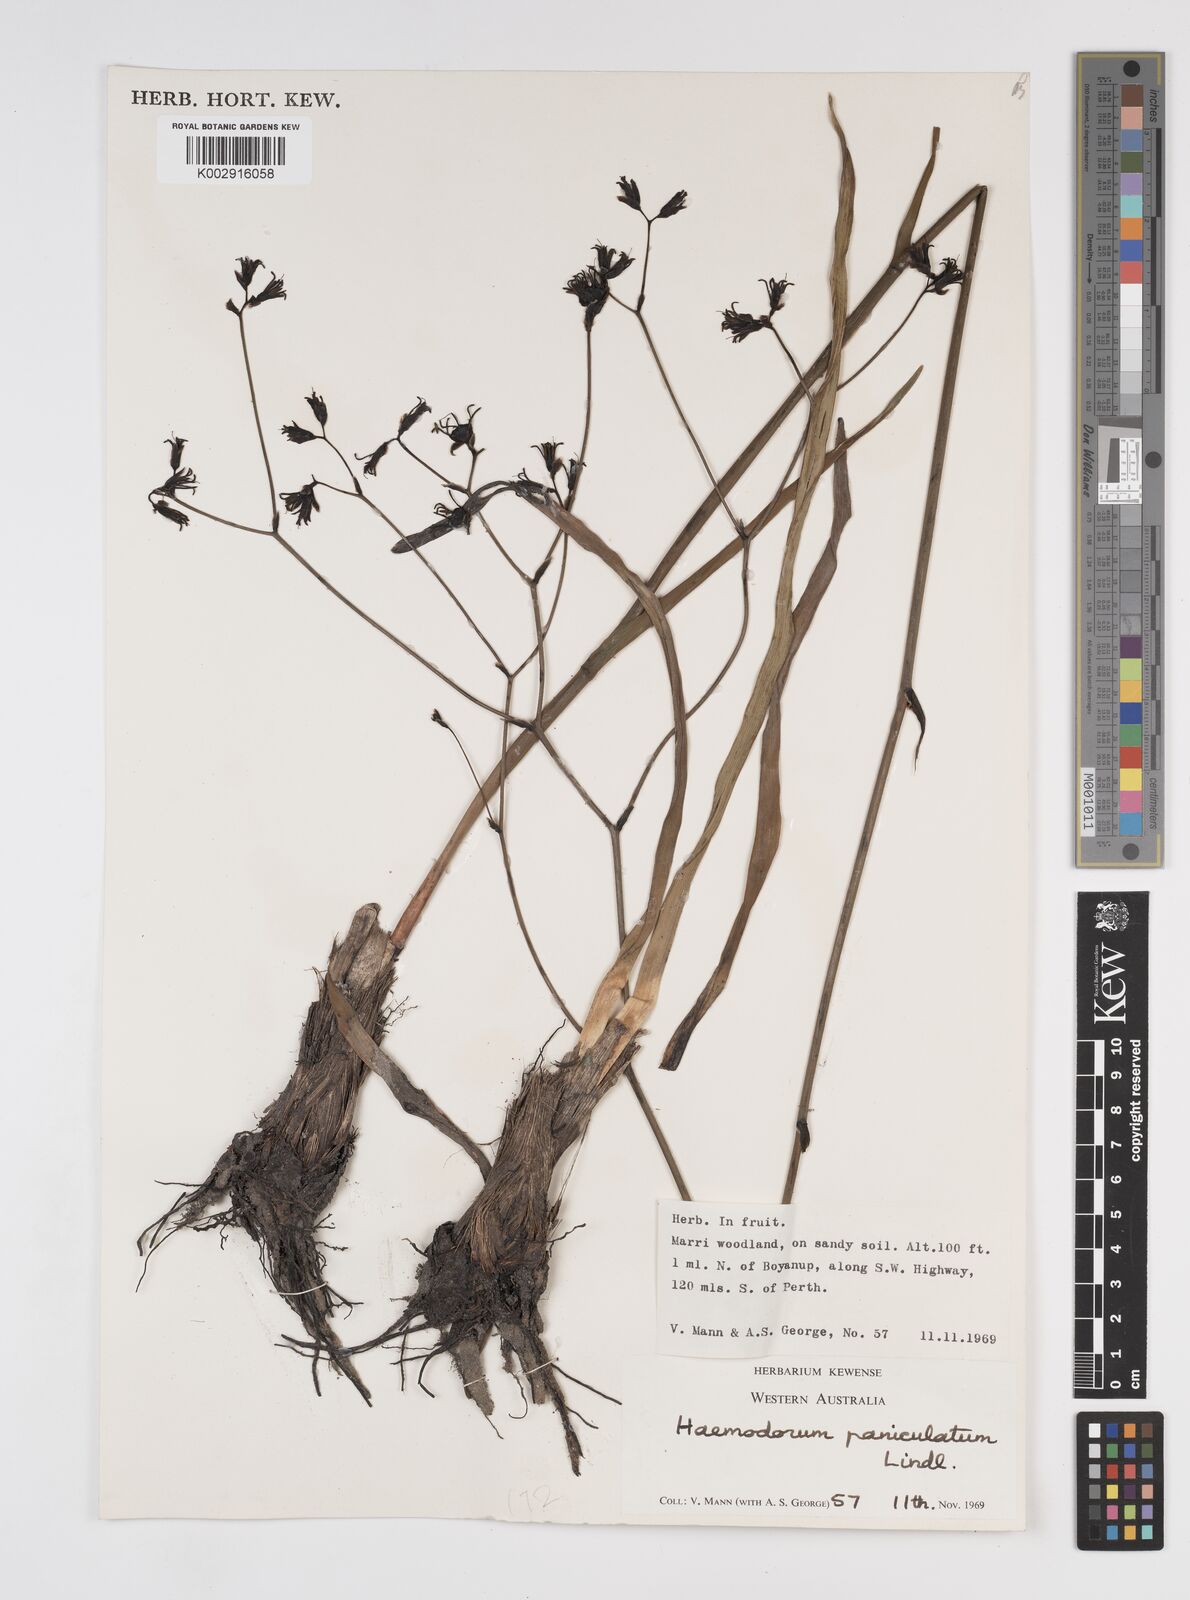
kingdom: Plantae
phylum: Tracheophyta
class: Liliopsida
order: Commelinales
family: Haemodoraceae
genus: Haemodorum
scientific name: Haemodorum paniculatum
